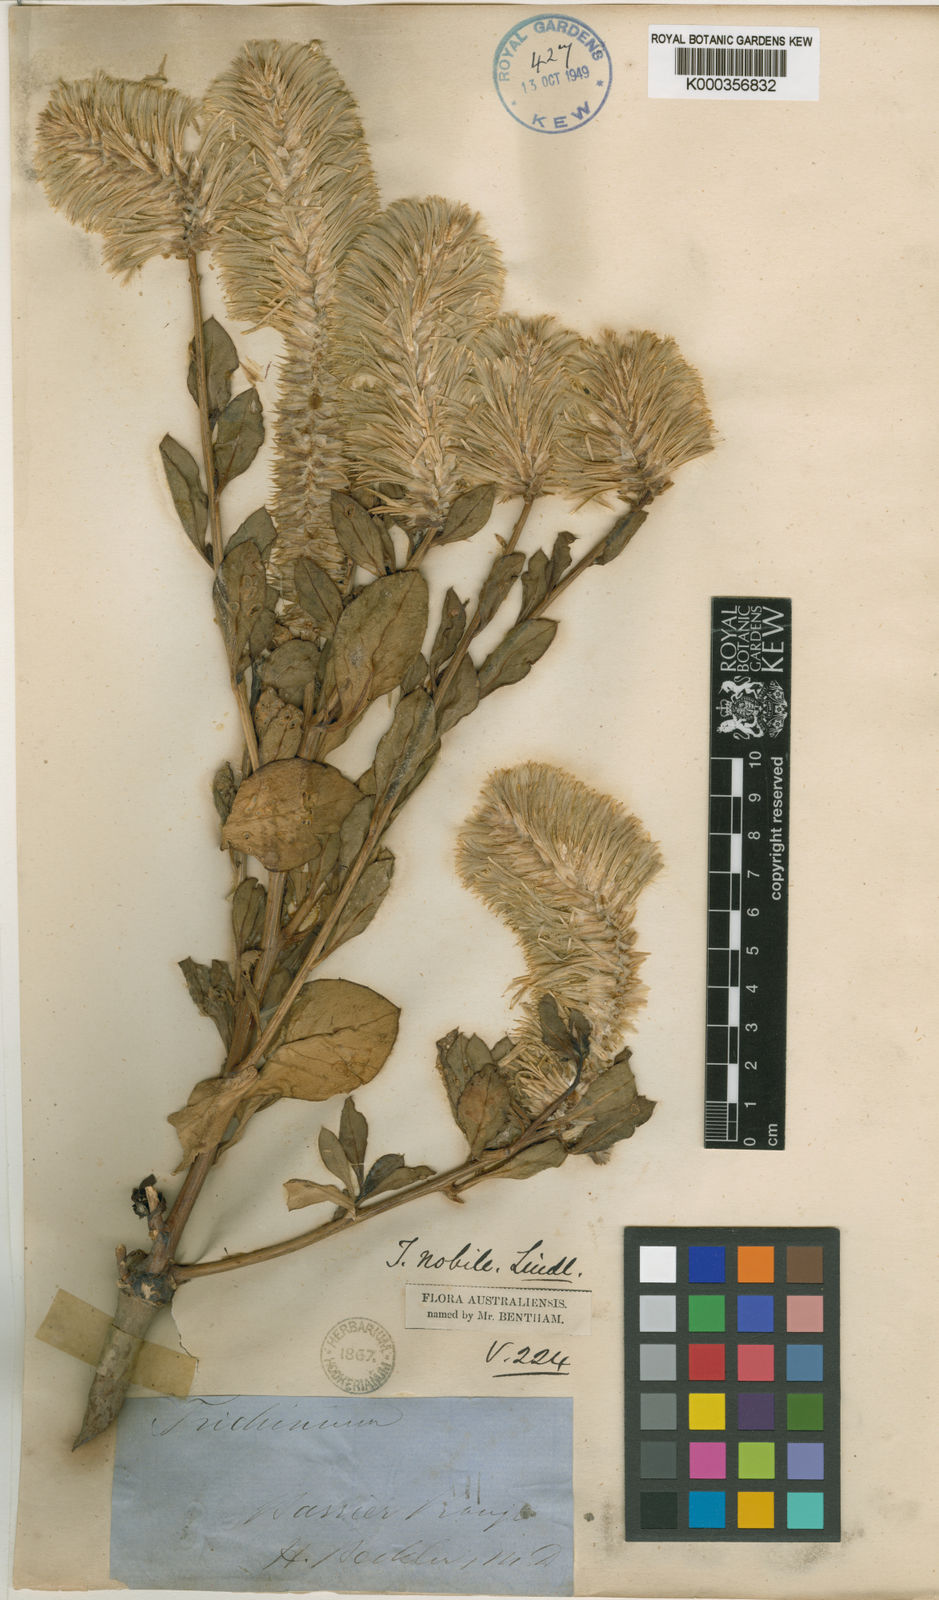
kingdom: Plantae
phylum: Tracheophyta
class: Magnoliopsida
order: Caryophyllales
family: Amaranthaceae
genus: Ptilotus
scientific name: Ptilotus nobilis
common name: Regal-foxtail
